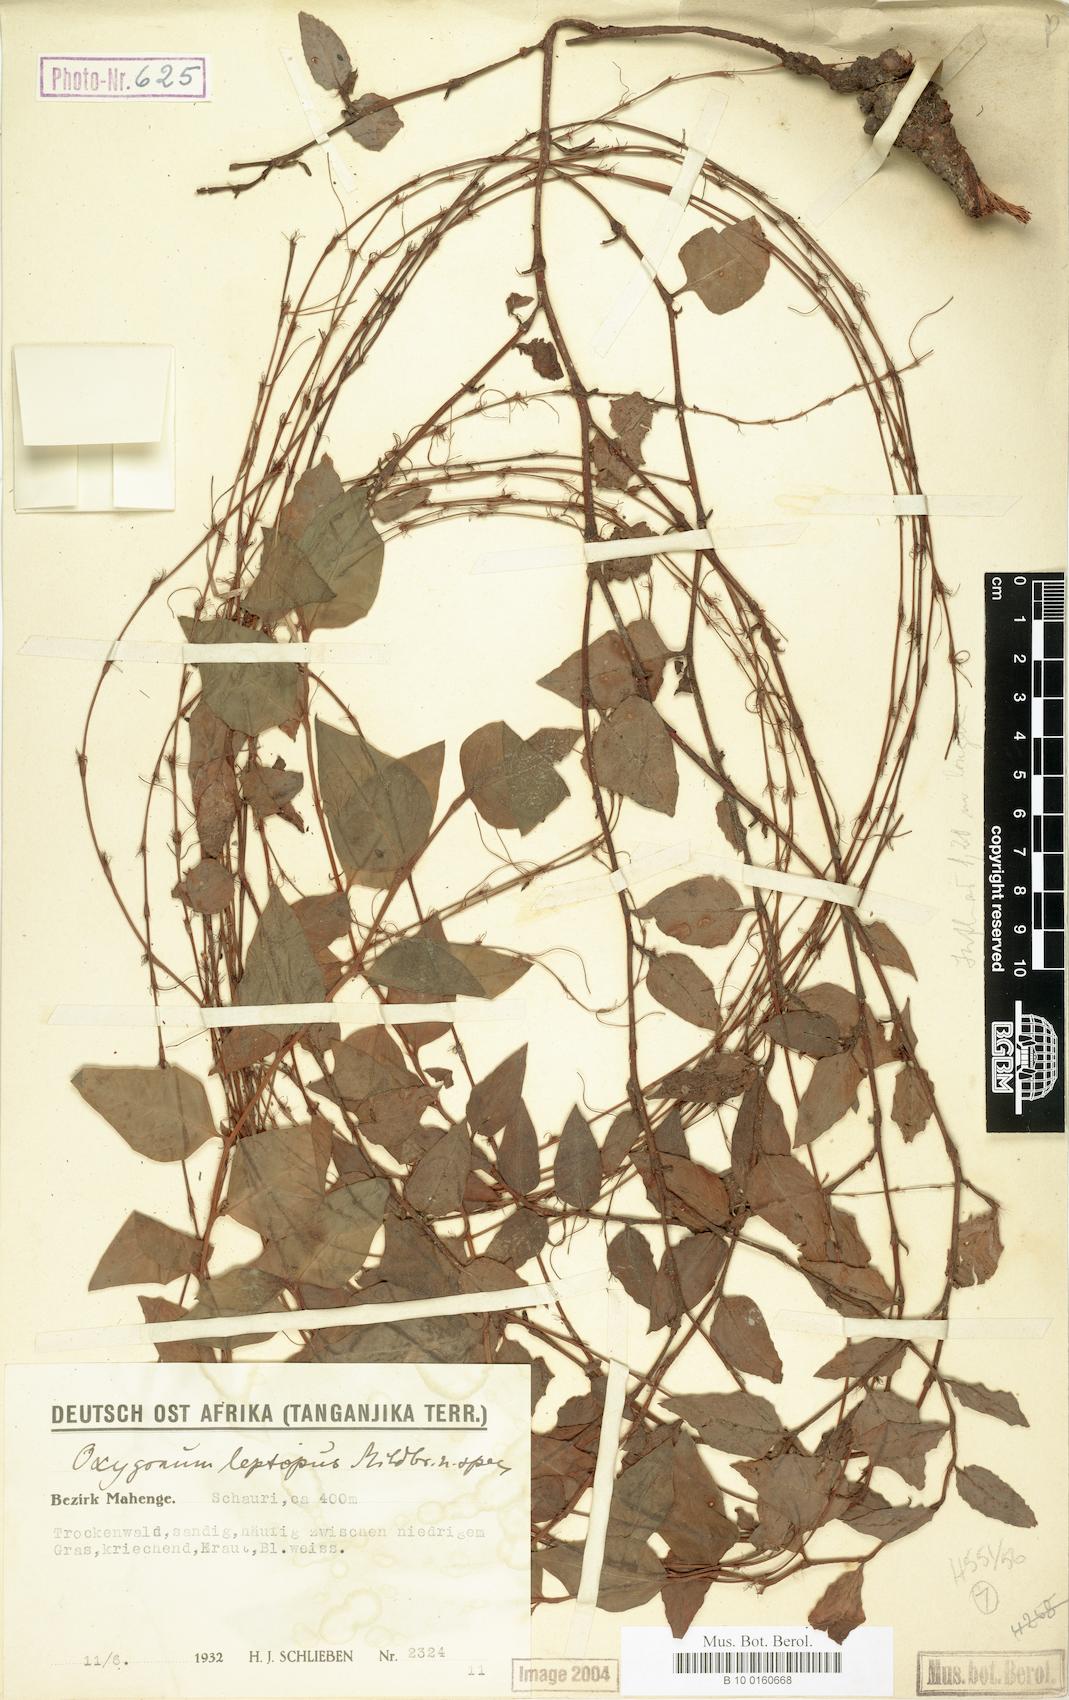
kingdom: Plantae
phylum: Tracheophyta
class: Magnoliopsida
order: Caryophyllales
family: Polygonaceae
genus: Oxygonum
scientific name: Oxygonum leptopus
